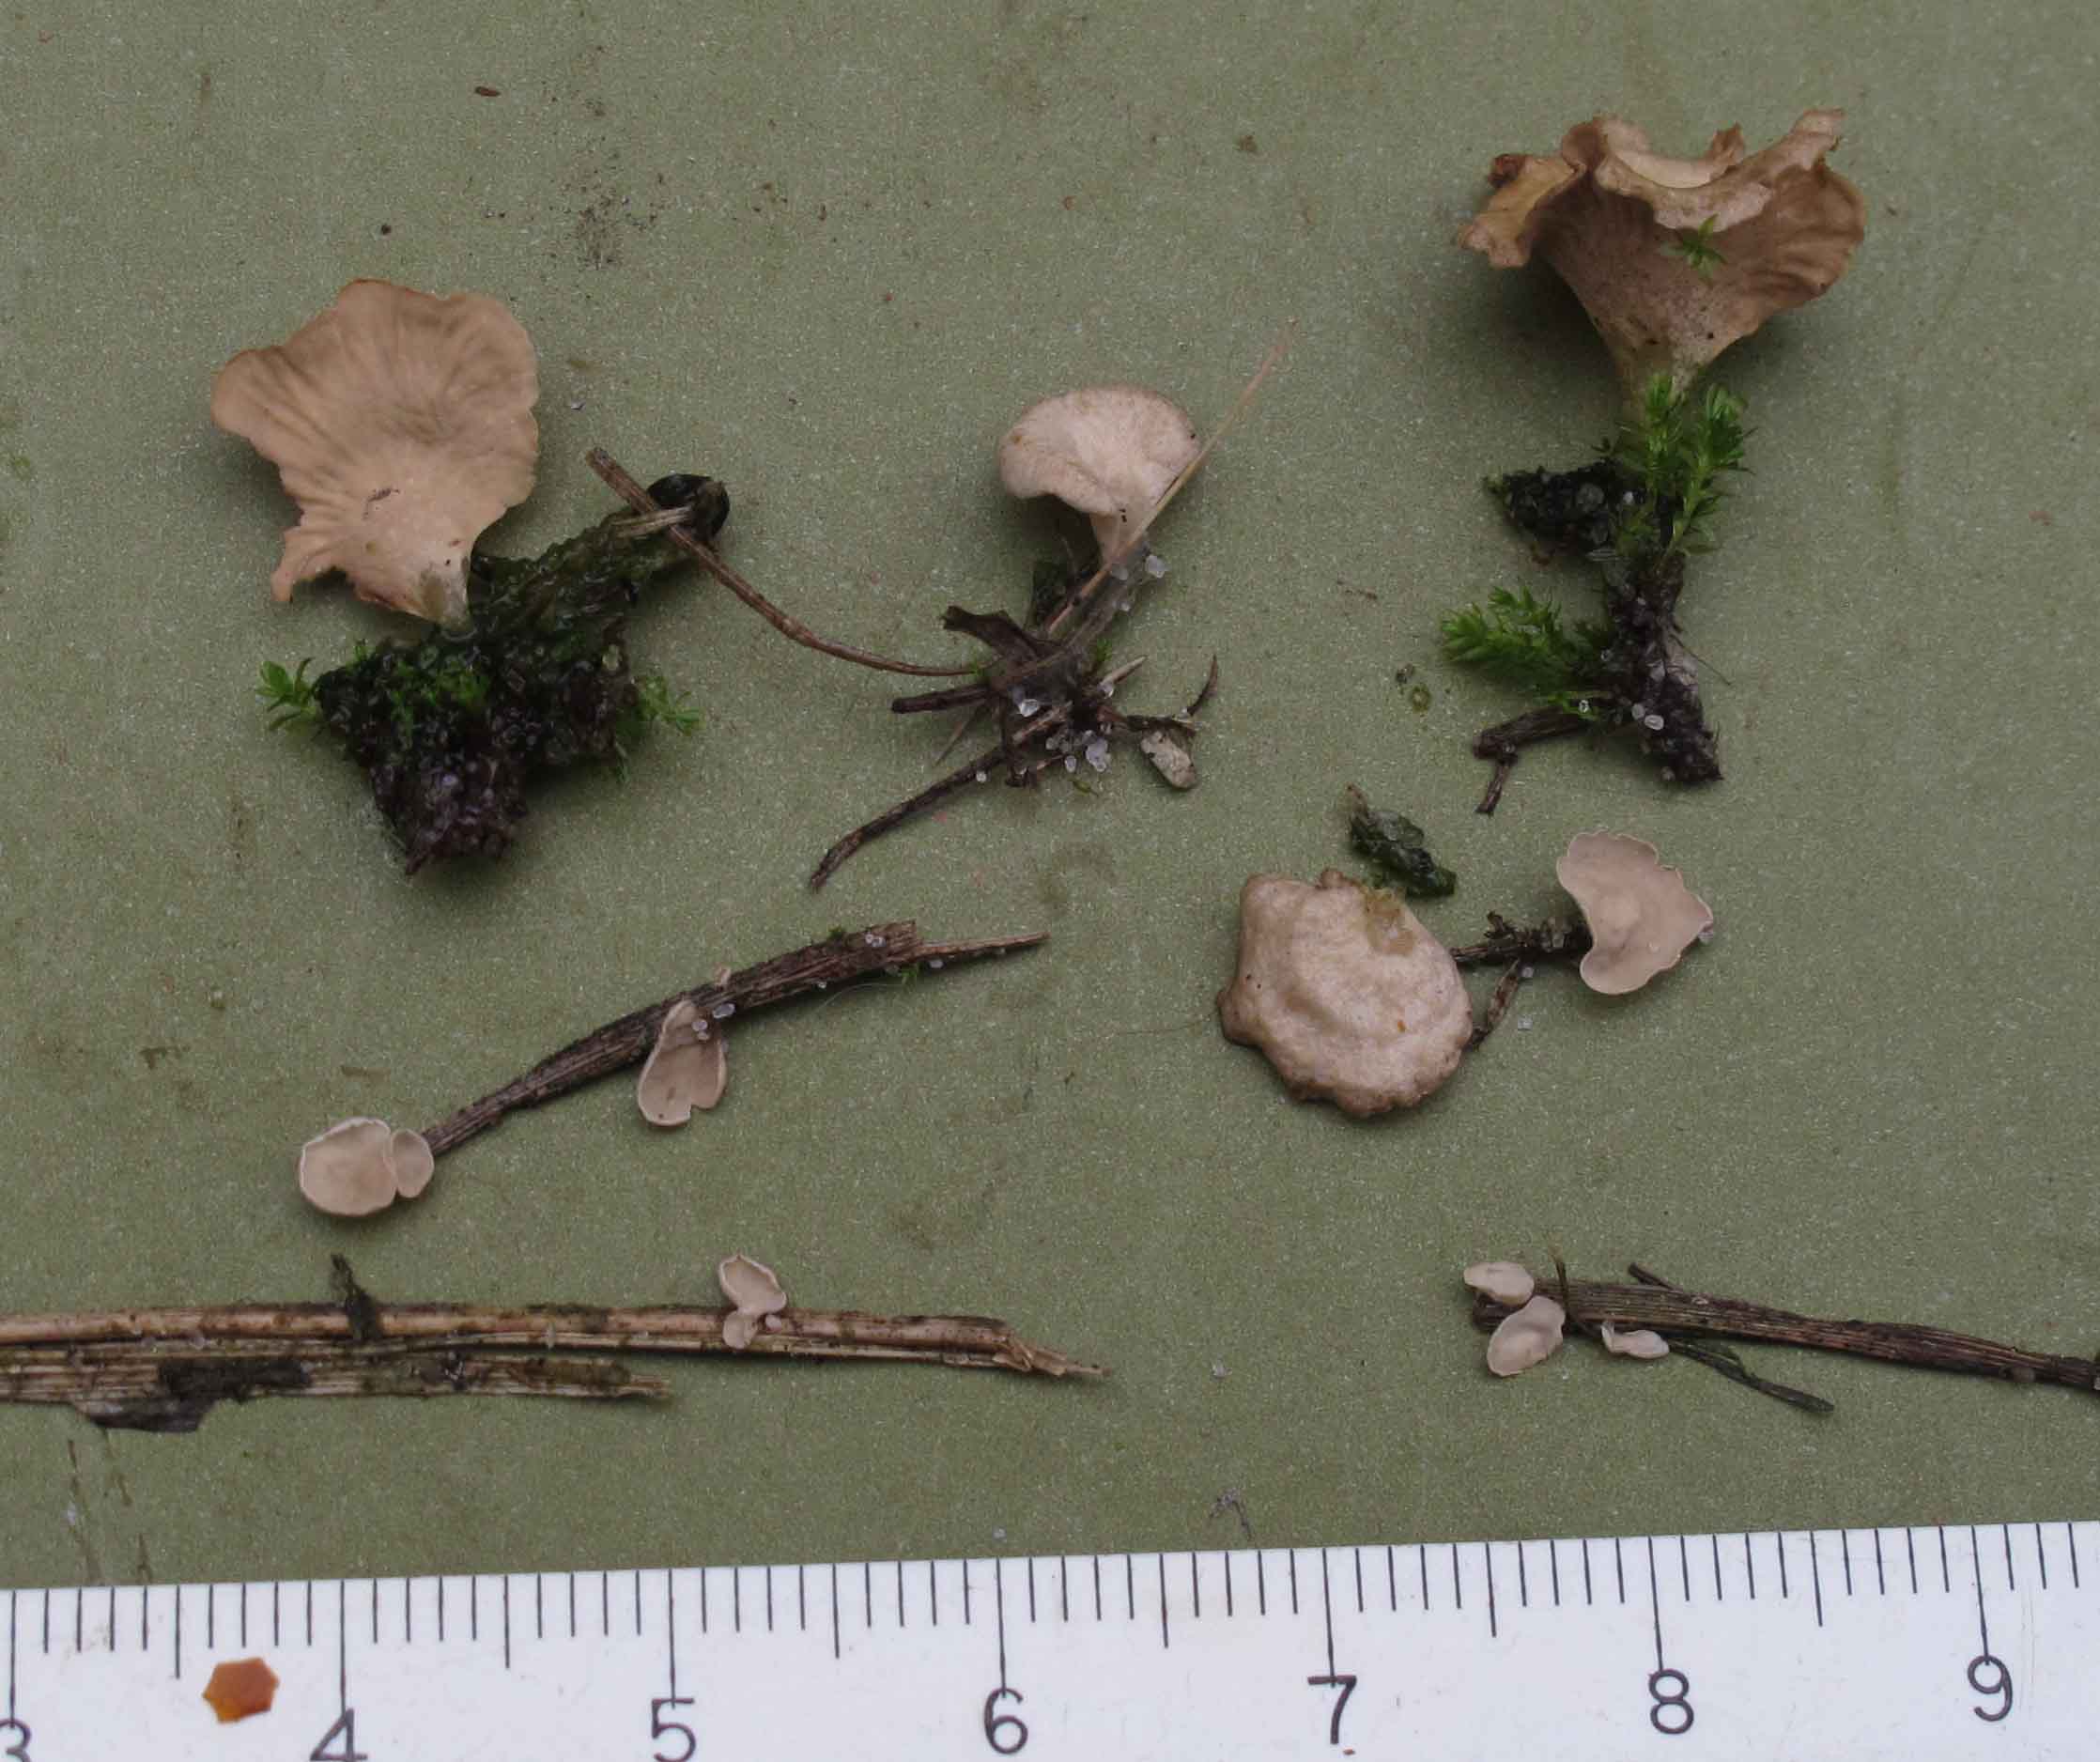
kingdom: Fungi
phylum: Basidiomycota
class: Agaricomycetes
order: Agaricales
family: Hygrophoraceae
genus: Arrhenia
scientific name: Arrhenia retiruga
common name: lille fontænehat
